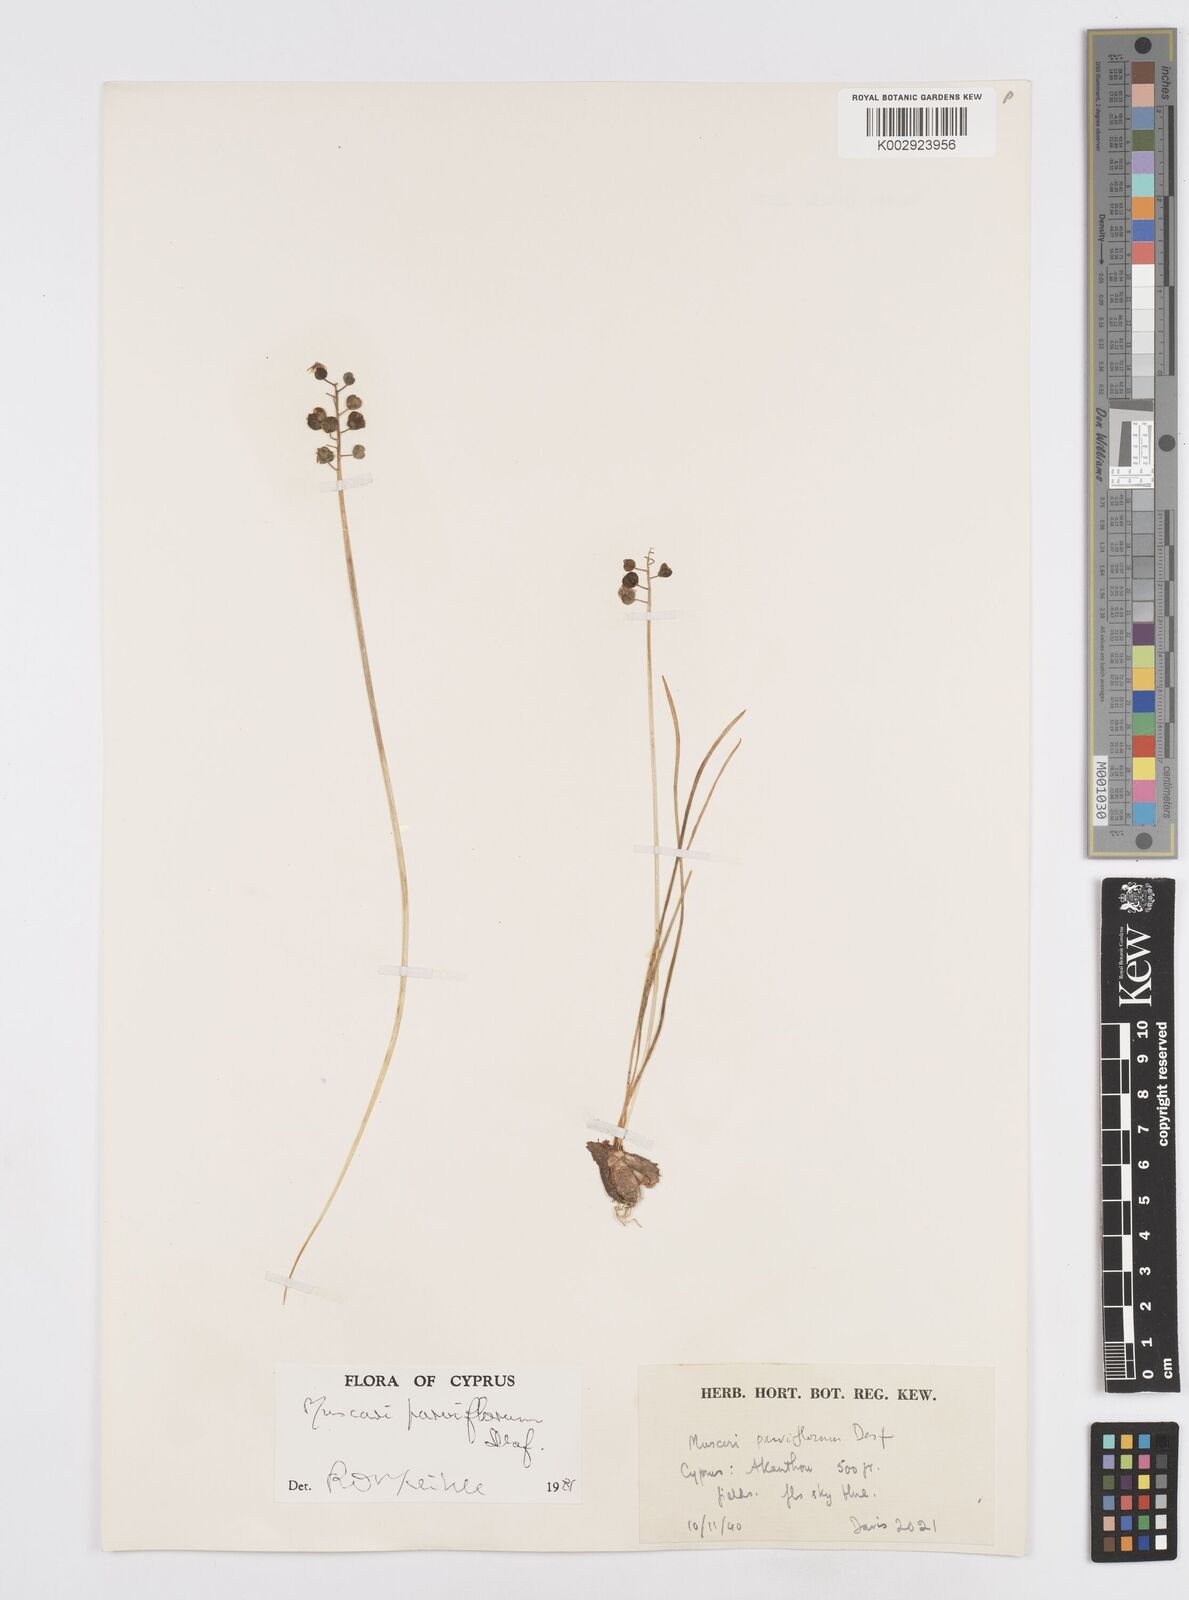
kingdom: Plantae
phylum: Tracheophyta
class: Liliopsida
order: Asparagales
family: Asparagaceae
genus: Muscari
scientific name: Muscari parviflorum
